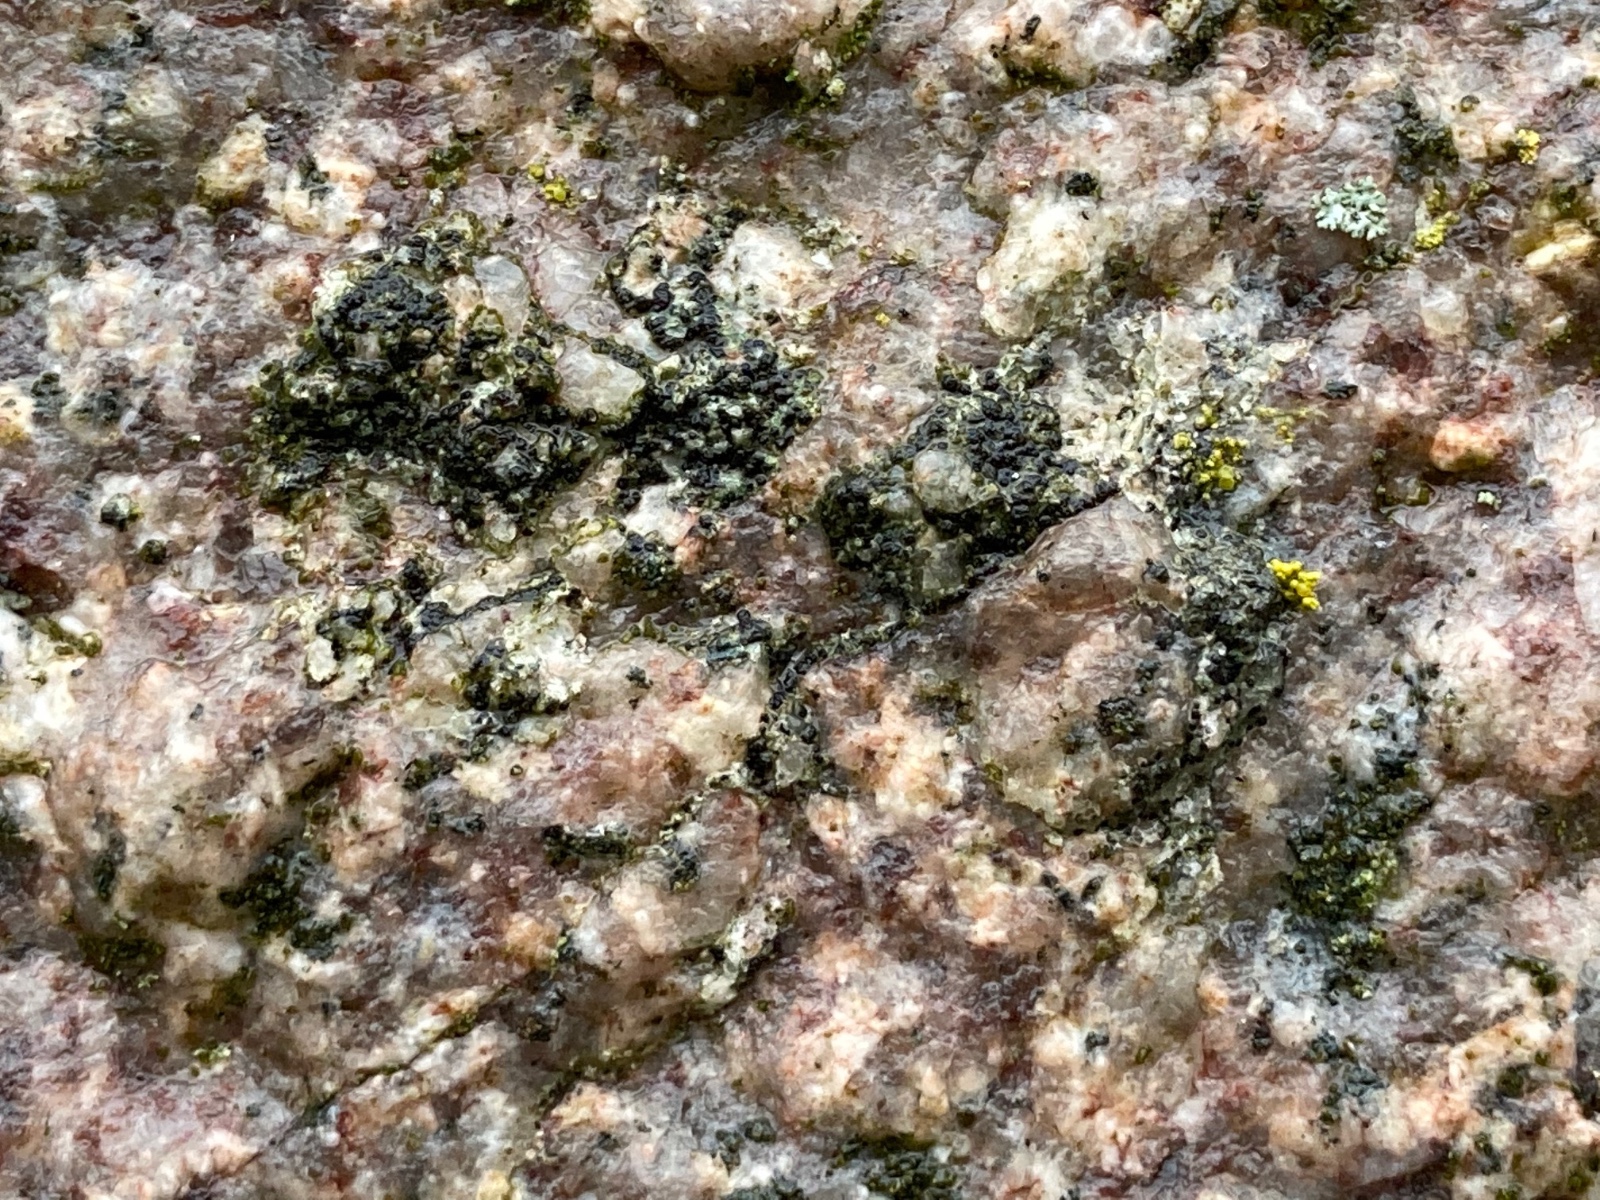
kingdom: Fungi
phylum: Ascomycota
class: Lecanoromycetes
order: Acarosporales
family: Acarosporaceae
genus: Acarospora
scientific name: Acarospora privigna
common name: sort foldekantlav
